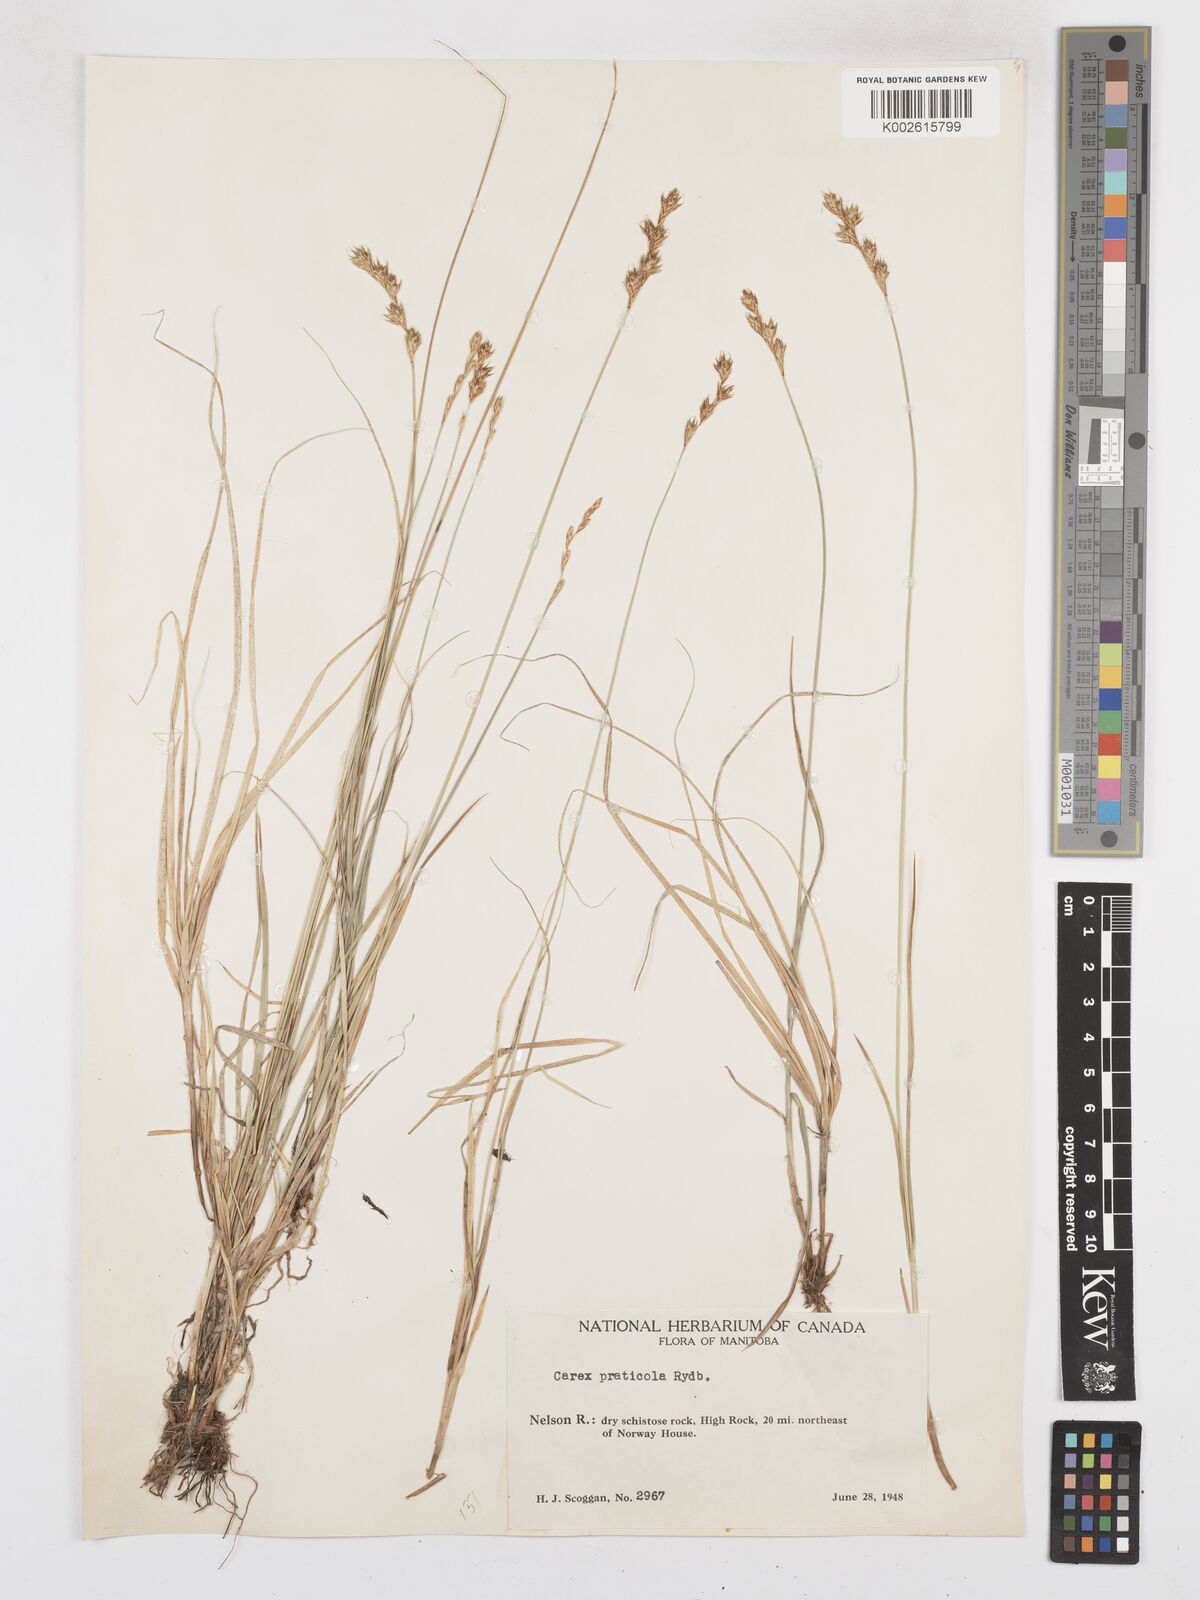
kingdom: Plantae
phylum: Tracheophyta
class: Liliopsida
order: Poales
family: Cyperaceae
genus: Carex
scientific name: Carex praticola
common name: Large-fruited oval sedge
